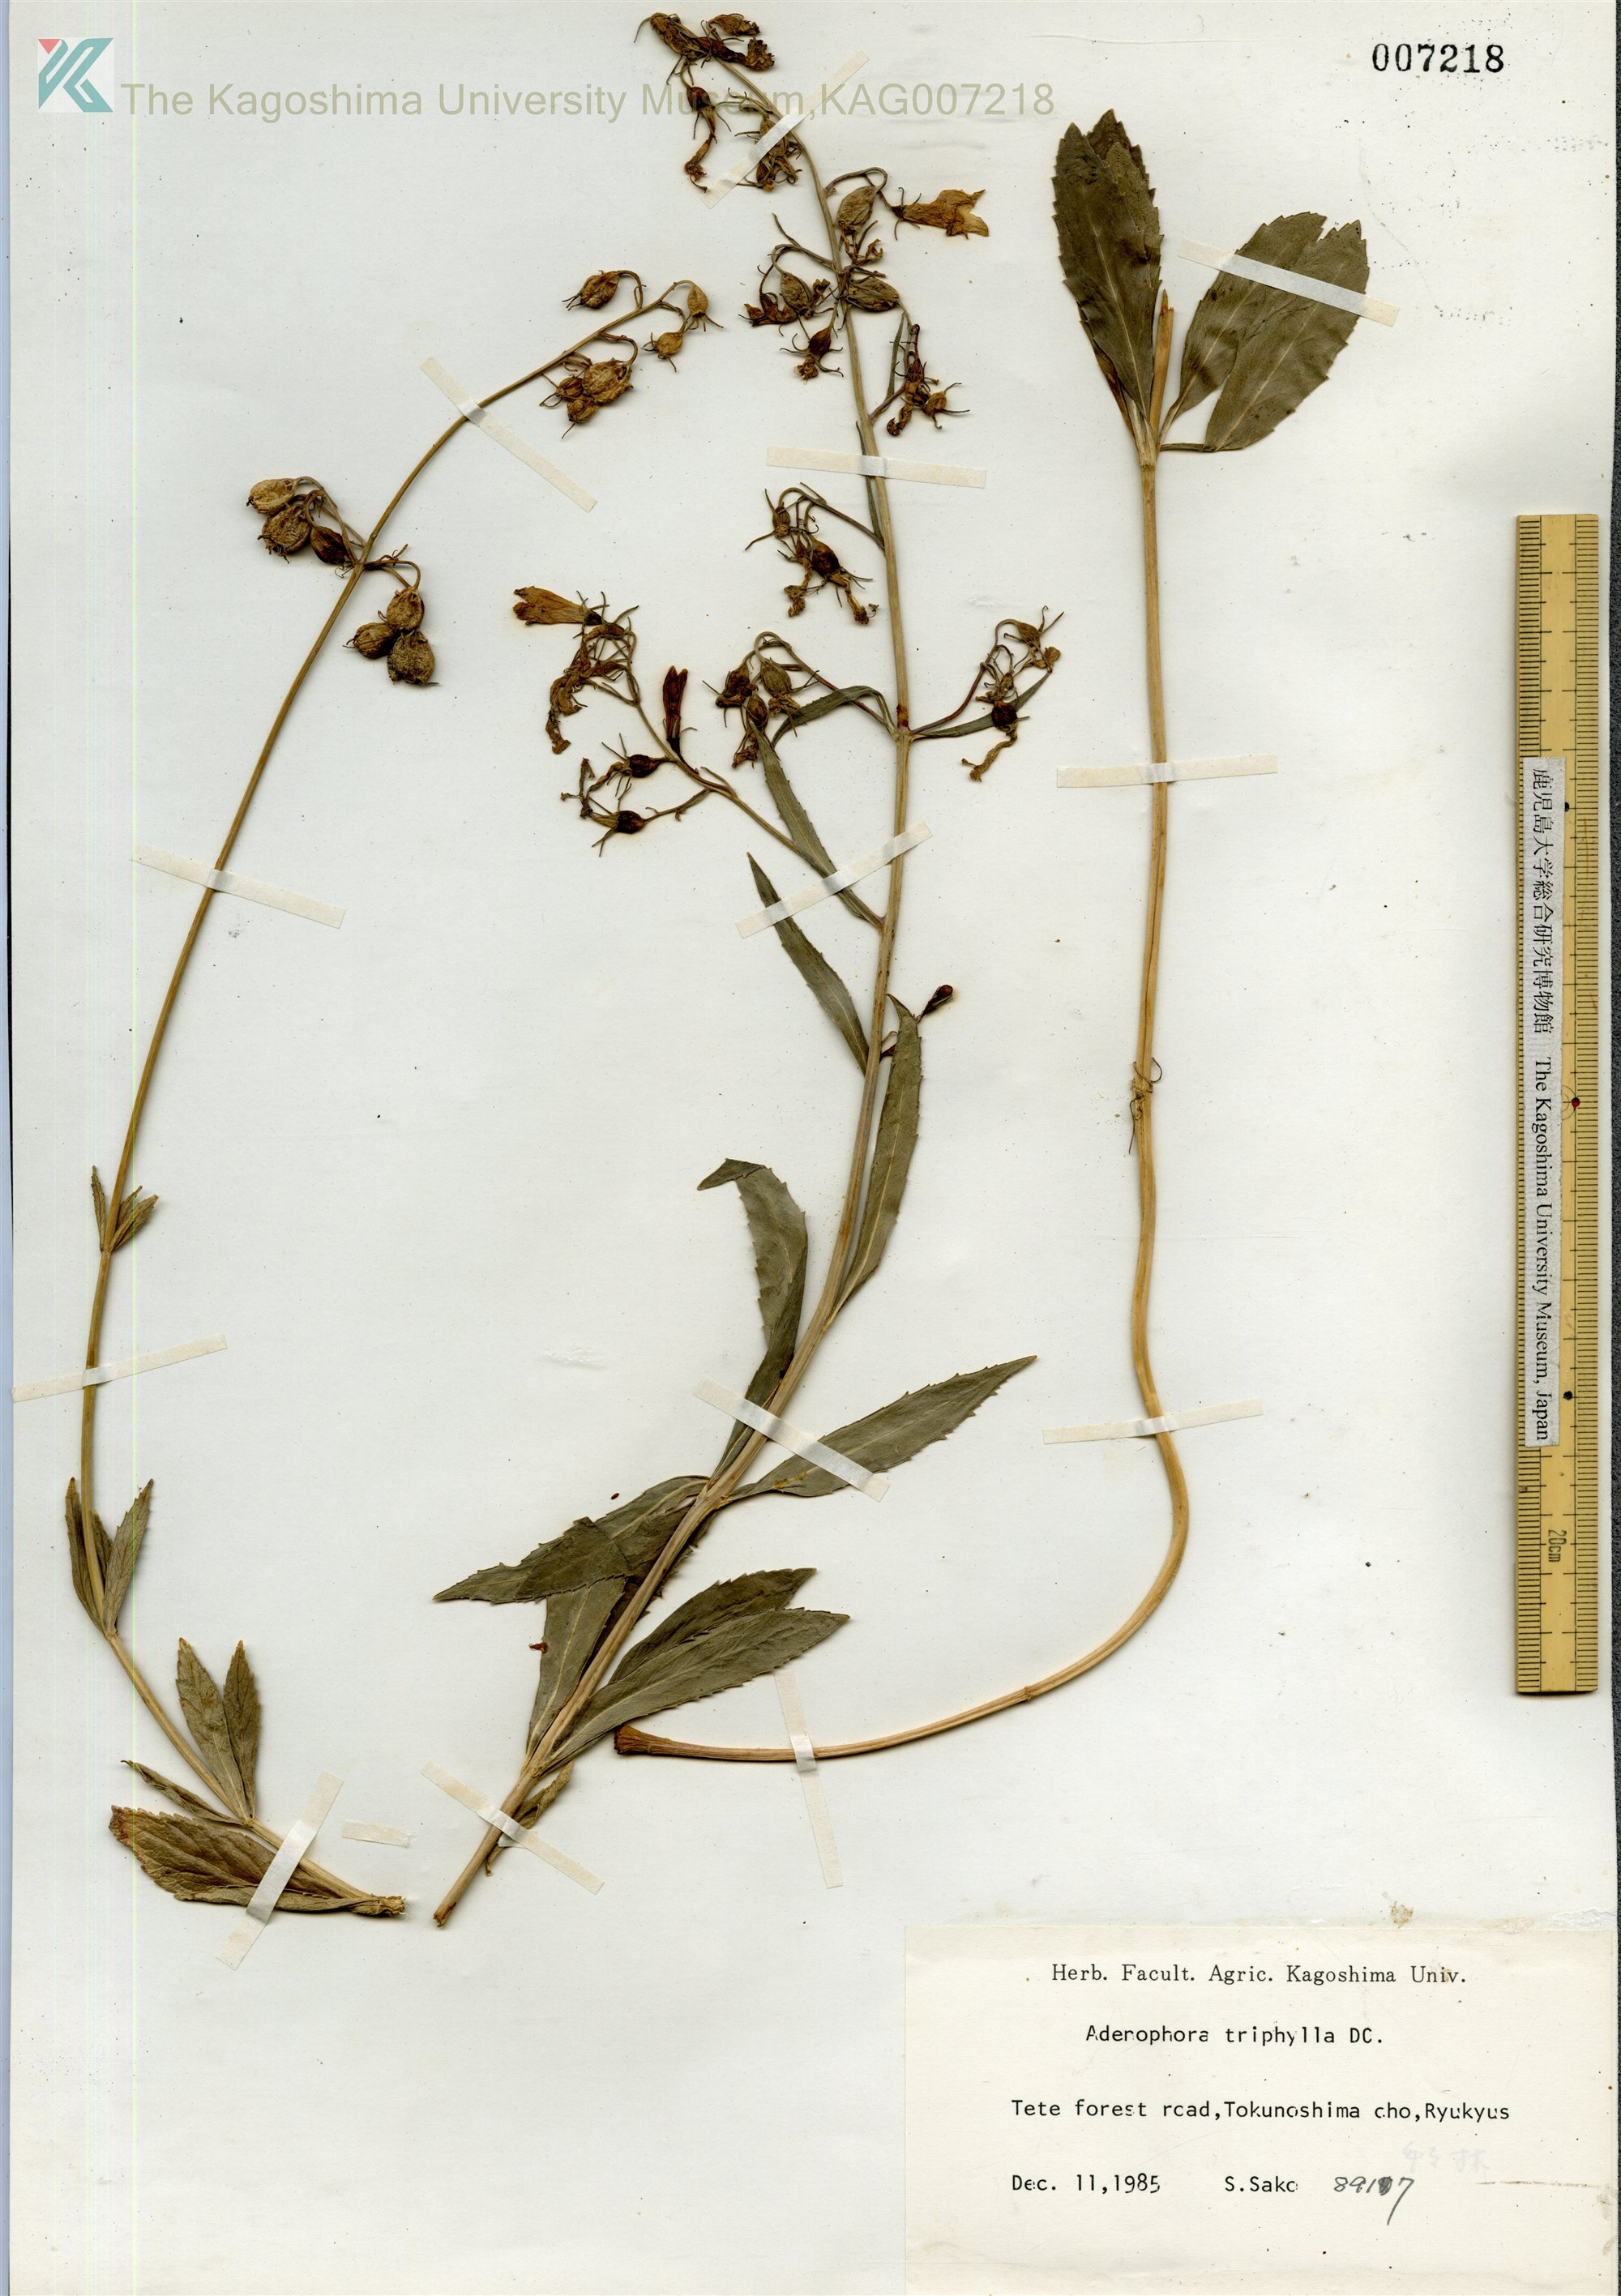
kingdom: Plantae
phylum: Tracheophyta
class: Magnoliopsida
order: Asterales
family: Campanulaceae
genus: Adenophora
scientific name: Adenophora tashiroi
